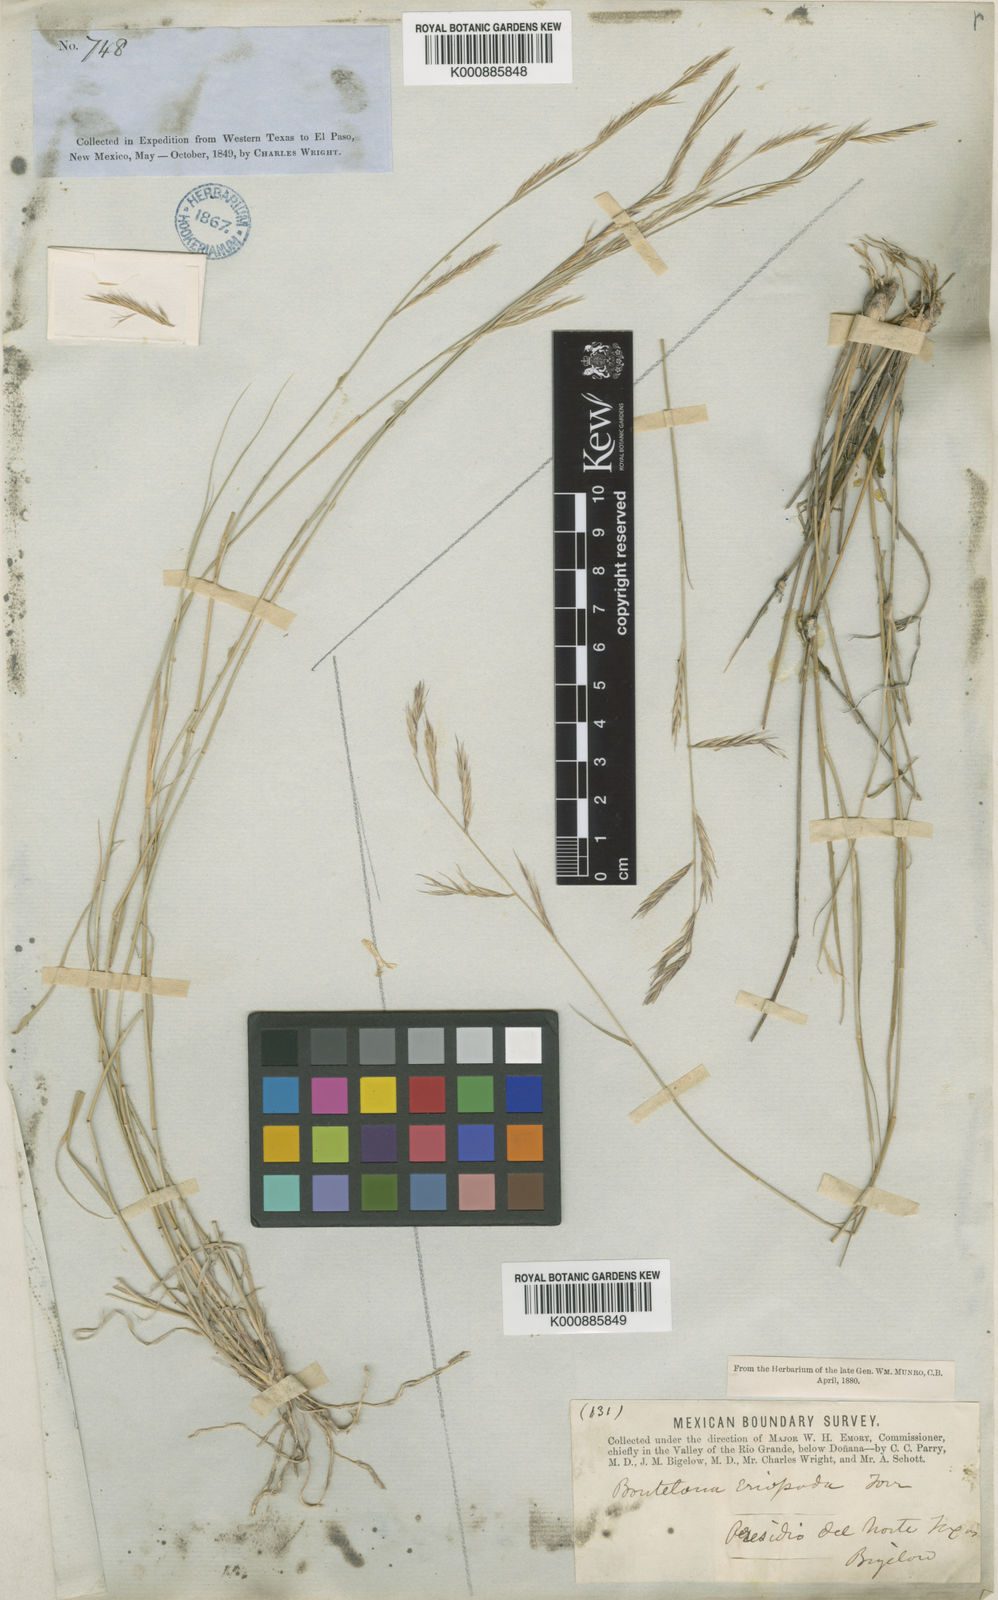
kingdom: Plantae
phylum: Tracheophyta
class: Liliopsida
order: Poales
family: Poaceae
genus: Bouteloua
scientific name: Bouteloua eriopoda
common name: Woolly foot grama
